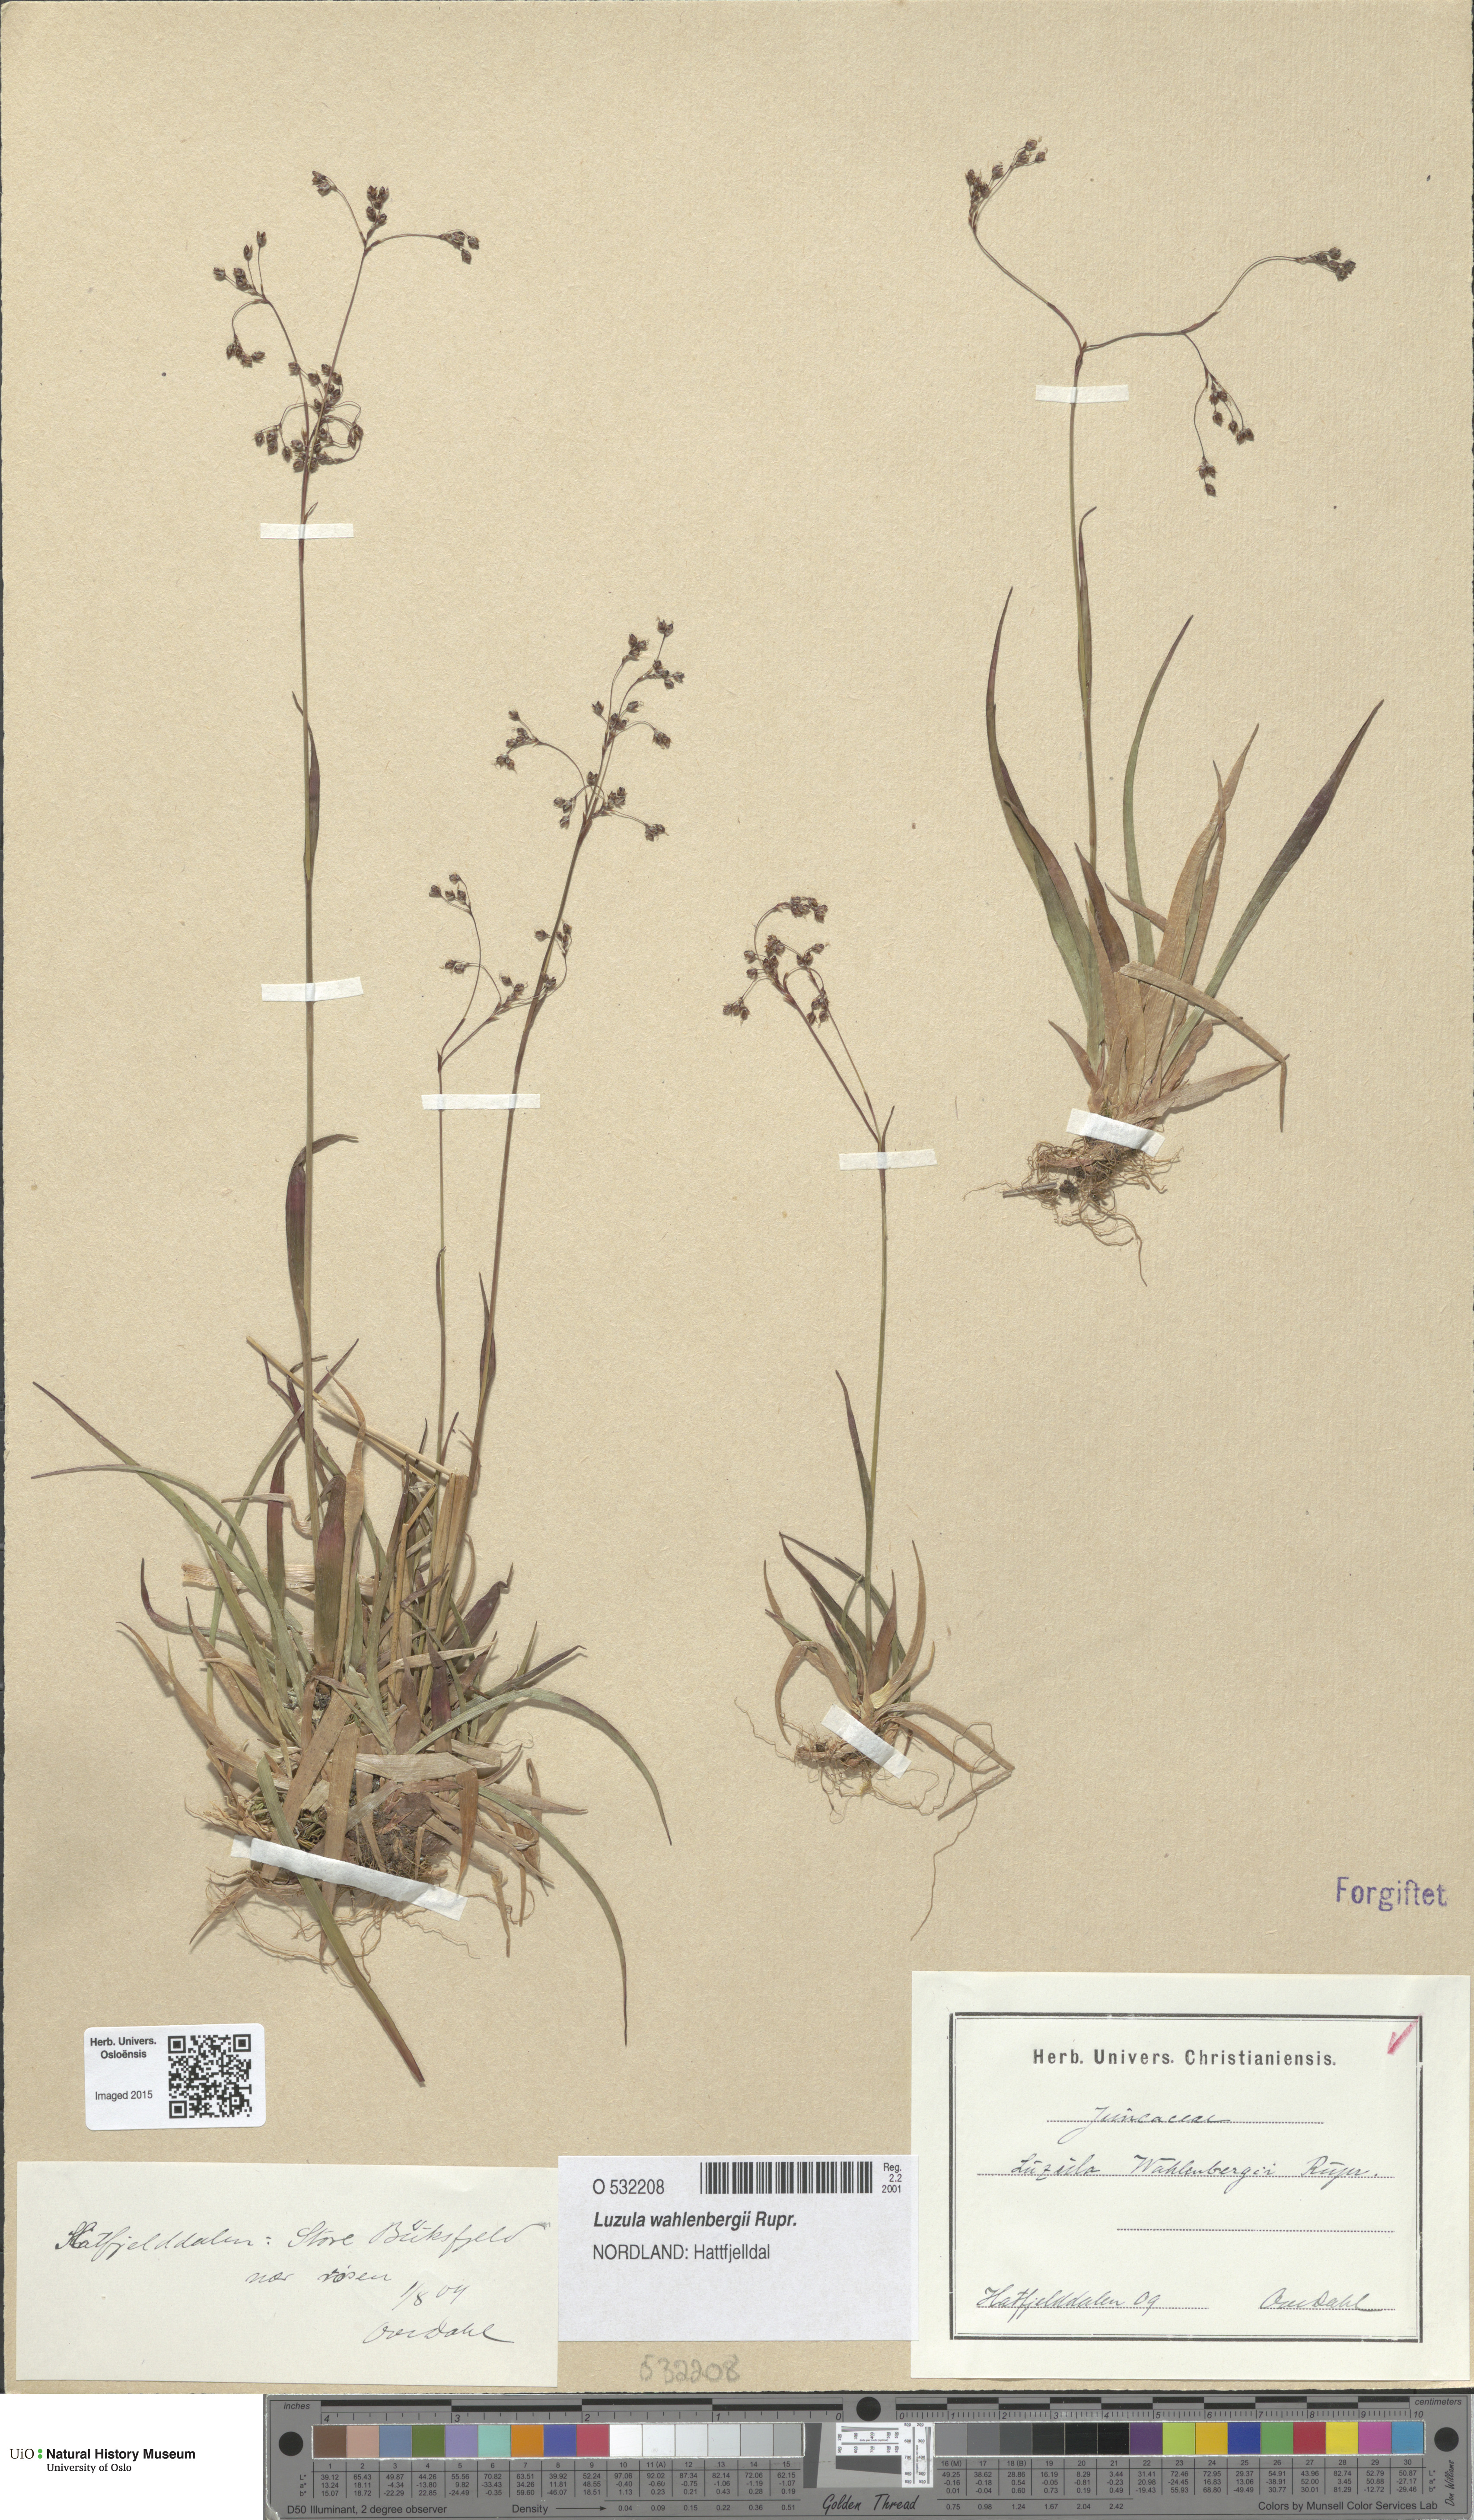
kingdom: Plantae
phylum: Tracheophyta
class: Liliopsida
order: Poales
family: Juncaceae
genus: Luzula
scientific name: Luzula wahlenbergii
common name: Wahlenberg's wood-rush
